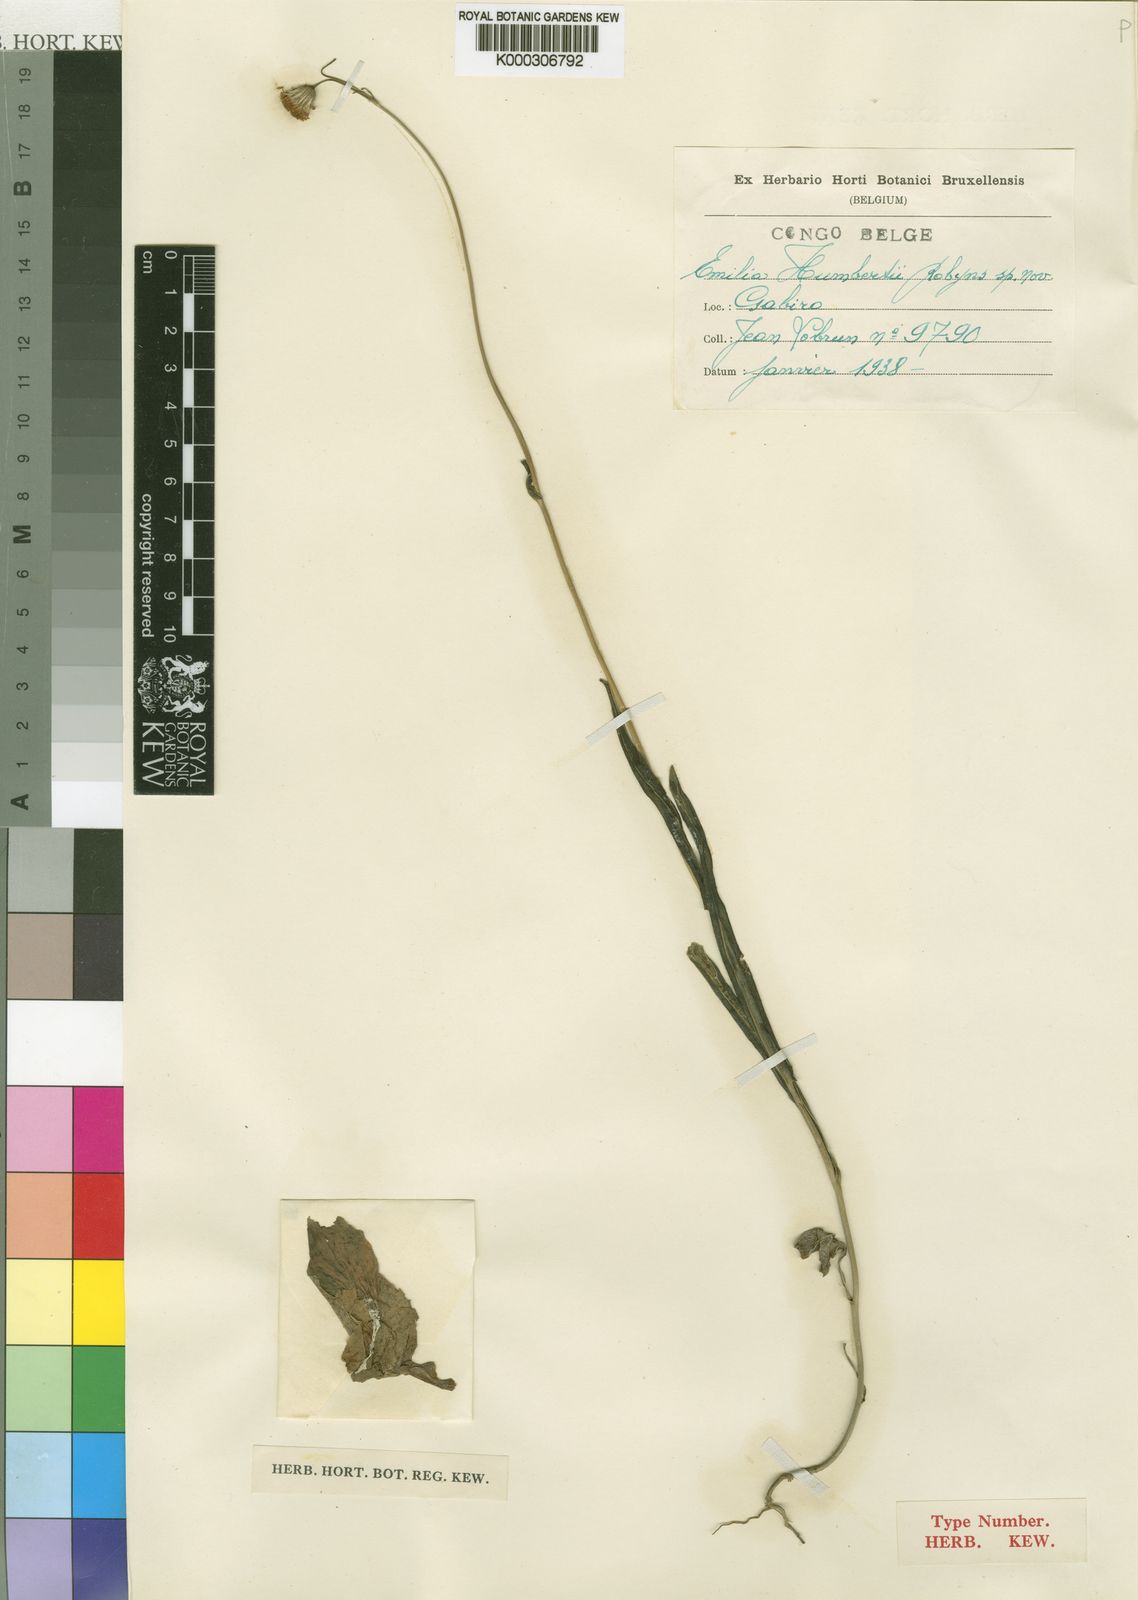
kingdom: Plantae
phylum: Tracheophyta
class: Magnoliopsida
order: Asterales
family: Asteraceae
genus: Emilia
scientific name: Emilia coccinea
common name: Scarlet tasselflower
